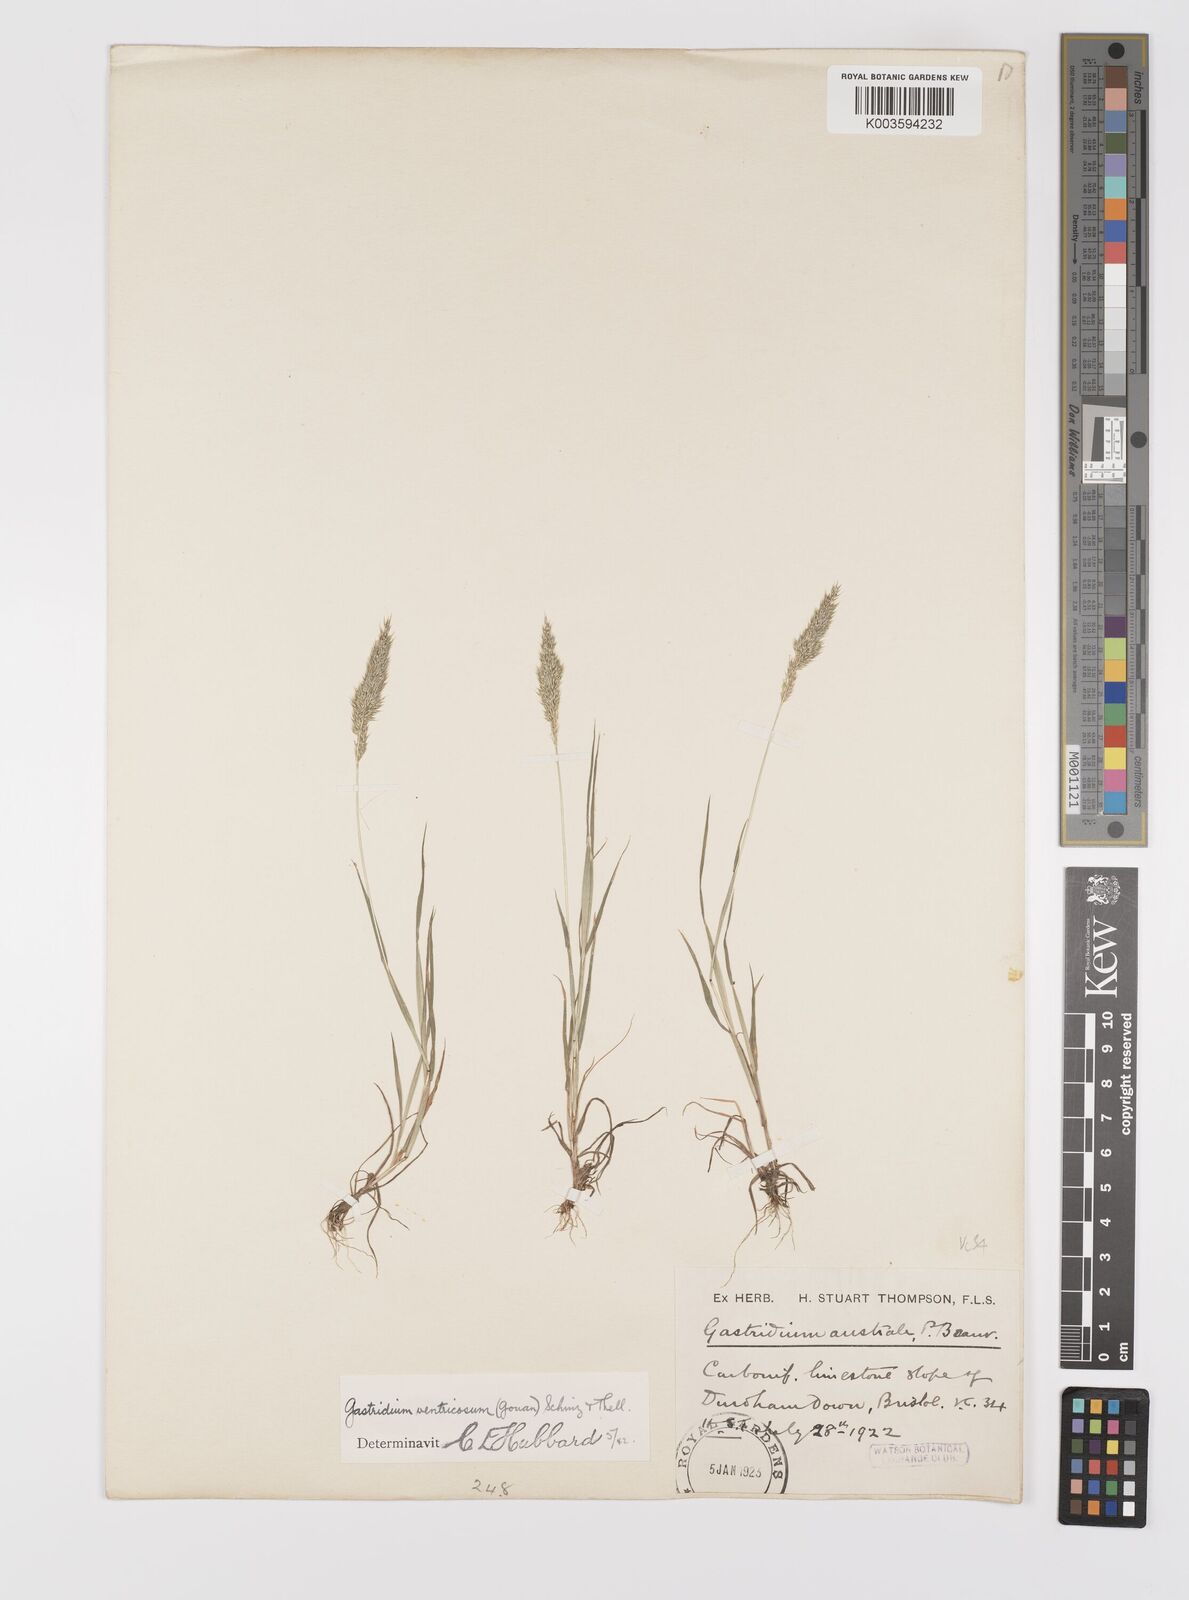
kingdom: Plantae
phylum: Tracheophyta
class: Liliopsida
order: Poales
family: Poaceae
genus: Gastridium
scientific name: Gastridium ventricosum
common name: Nit-grass
